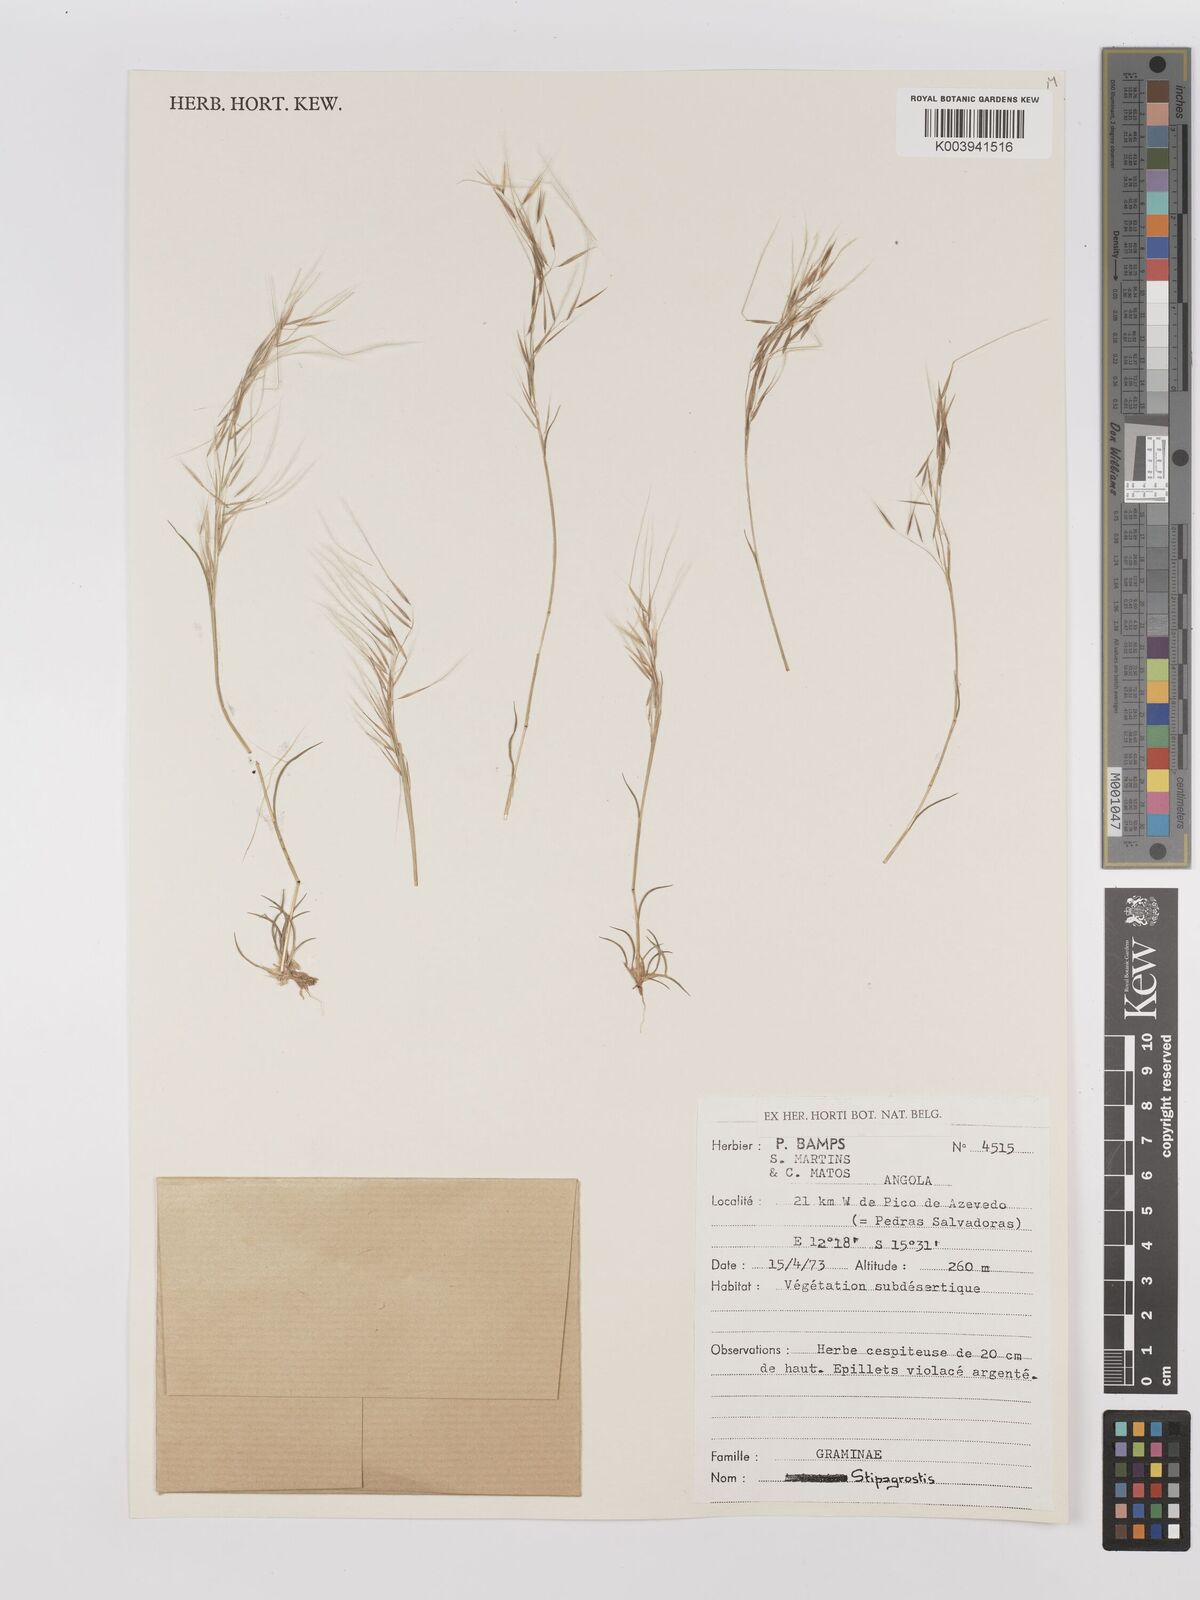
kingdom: Plantae
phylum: Tracheophyta
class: Liliopsida
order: Poales
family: Poaceae
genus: Stipagrostis
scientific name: Stipagrostis
